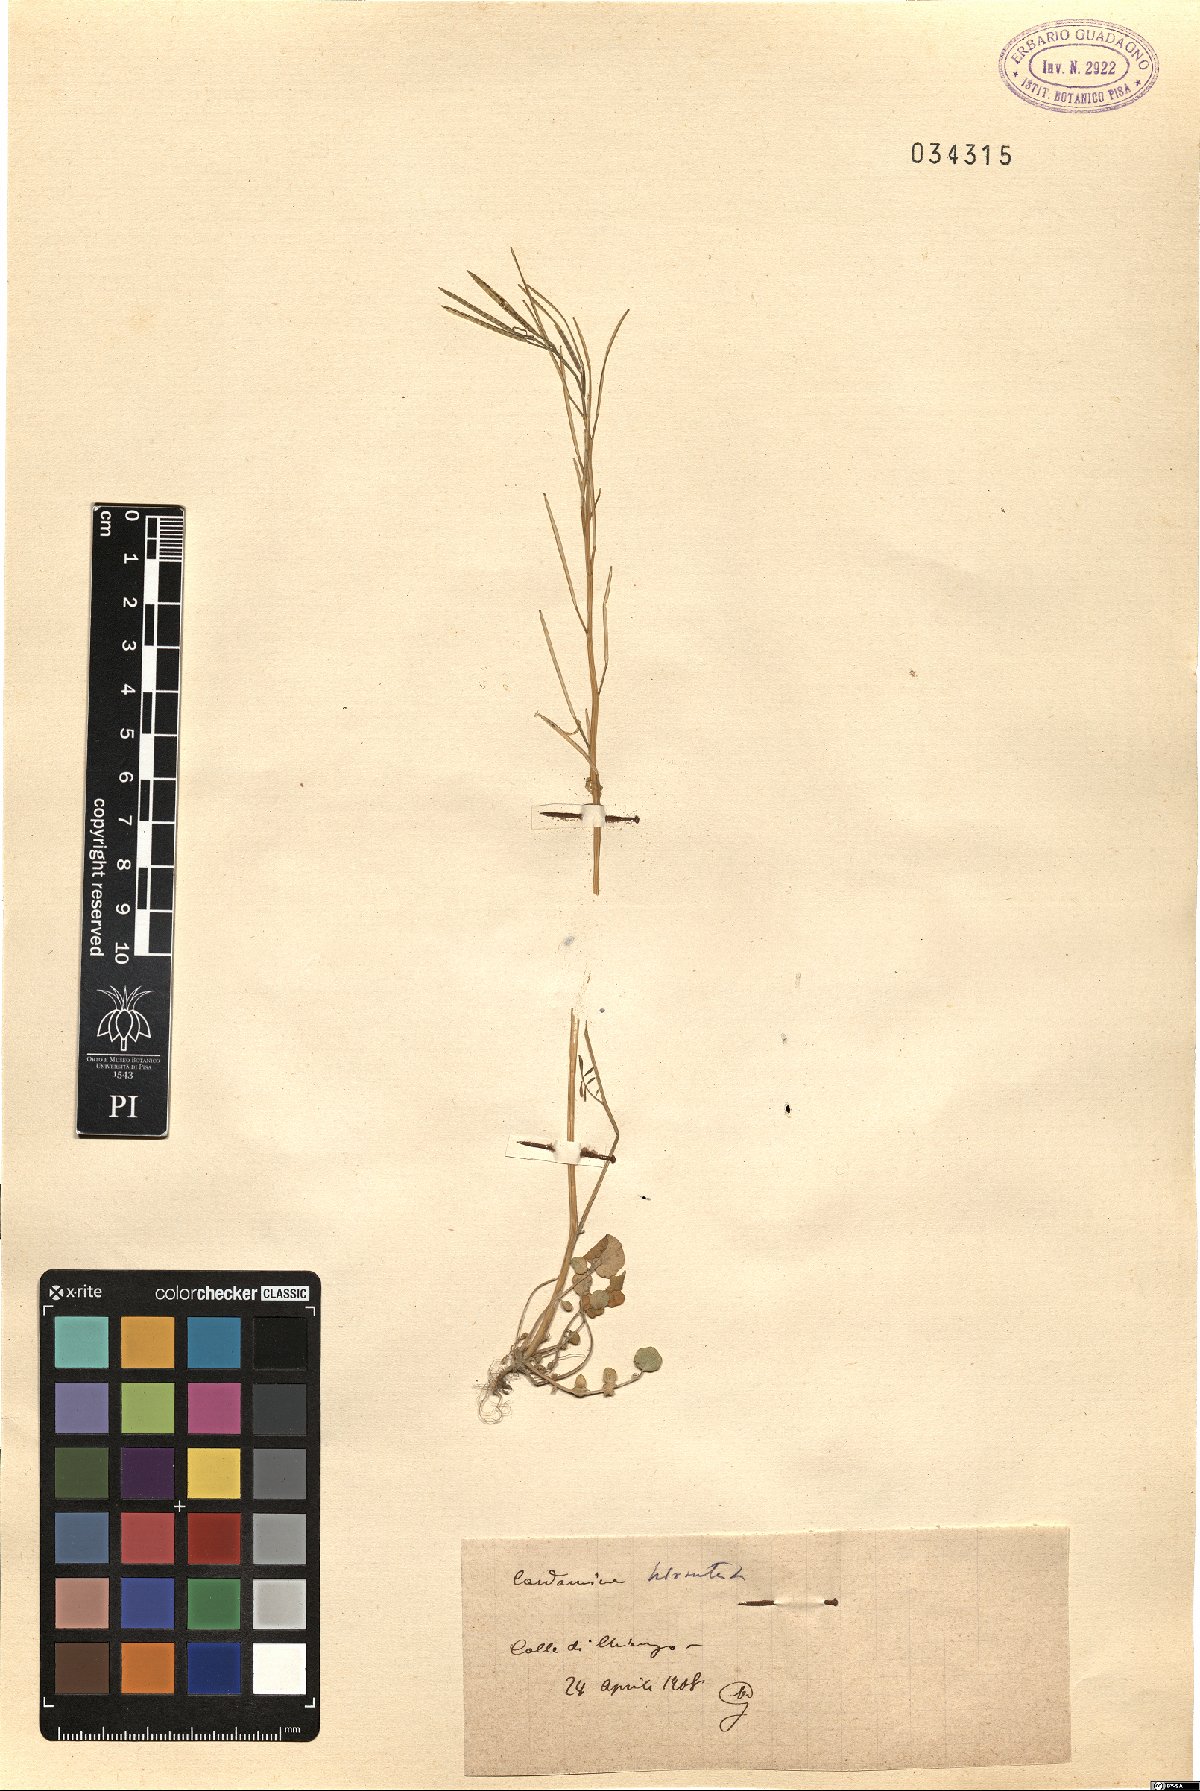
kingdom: Plantae
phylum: Tracheophyta
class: Magnoliopsida
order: Brassicales
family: Brassicaceae
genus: Cardamine
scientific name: Cardamine hirsuta
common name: Hairy bittercress
